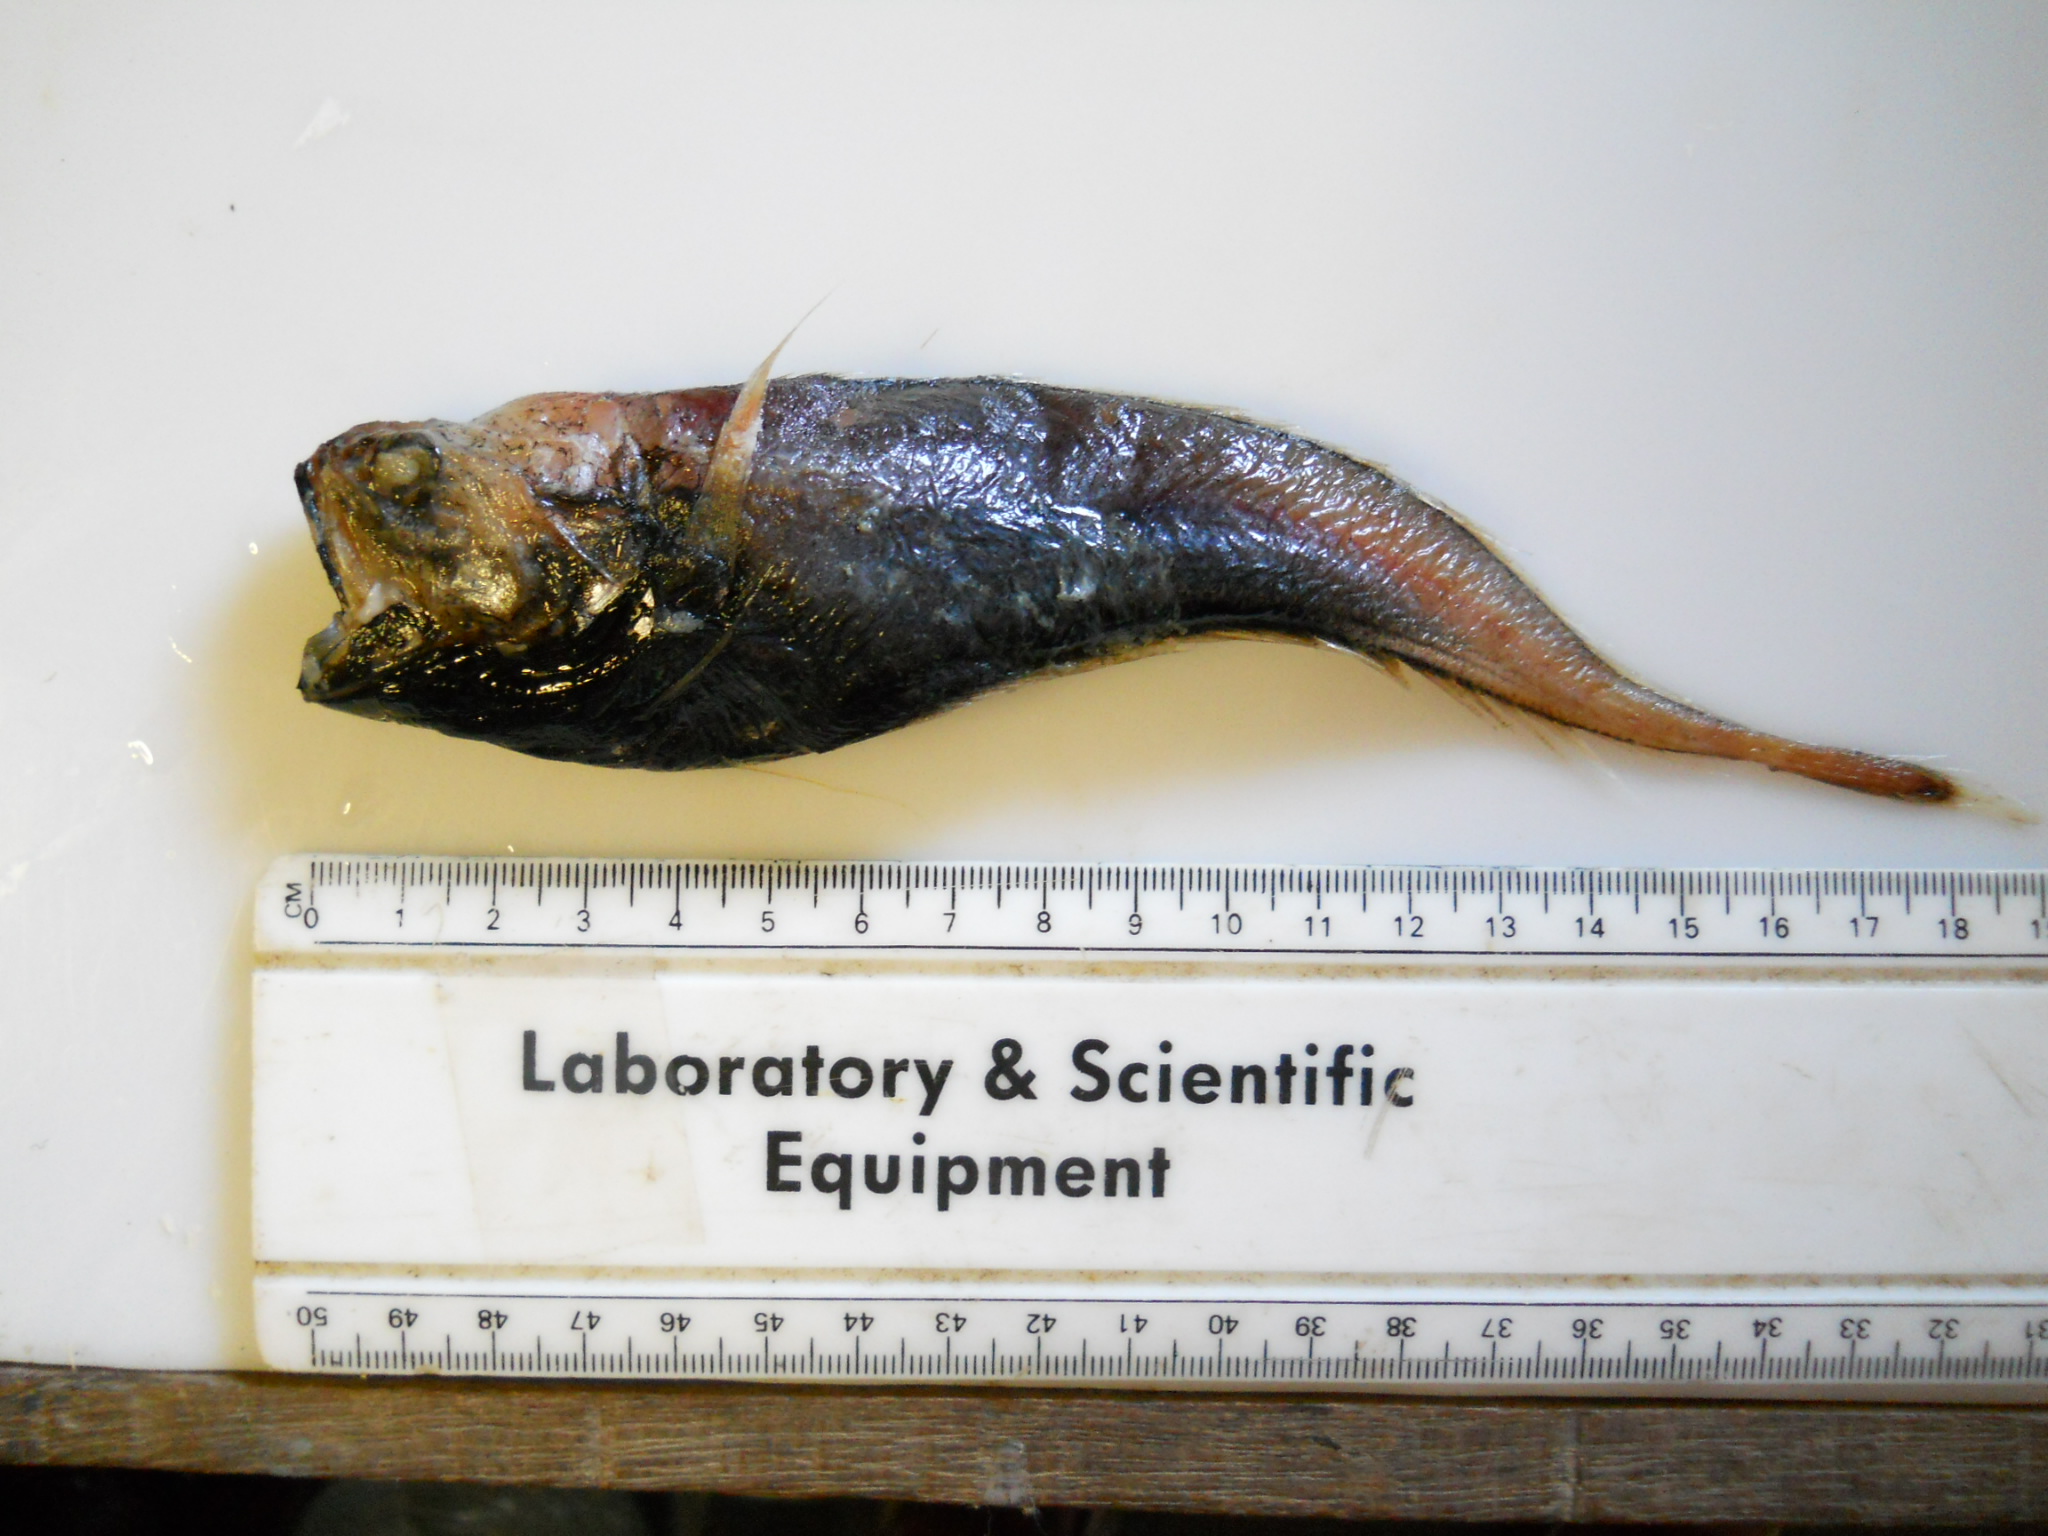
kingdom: Animalia
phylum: Chordata
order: Ophidiiformes
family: Ophidiidae
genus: Glyptophidium
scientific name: Glyptophidium longipes
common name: Bigeye brotula
